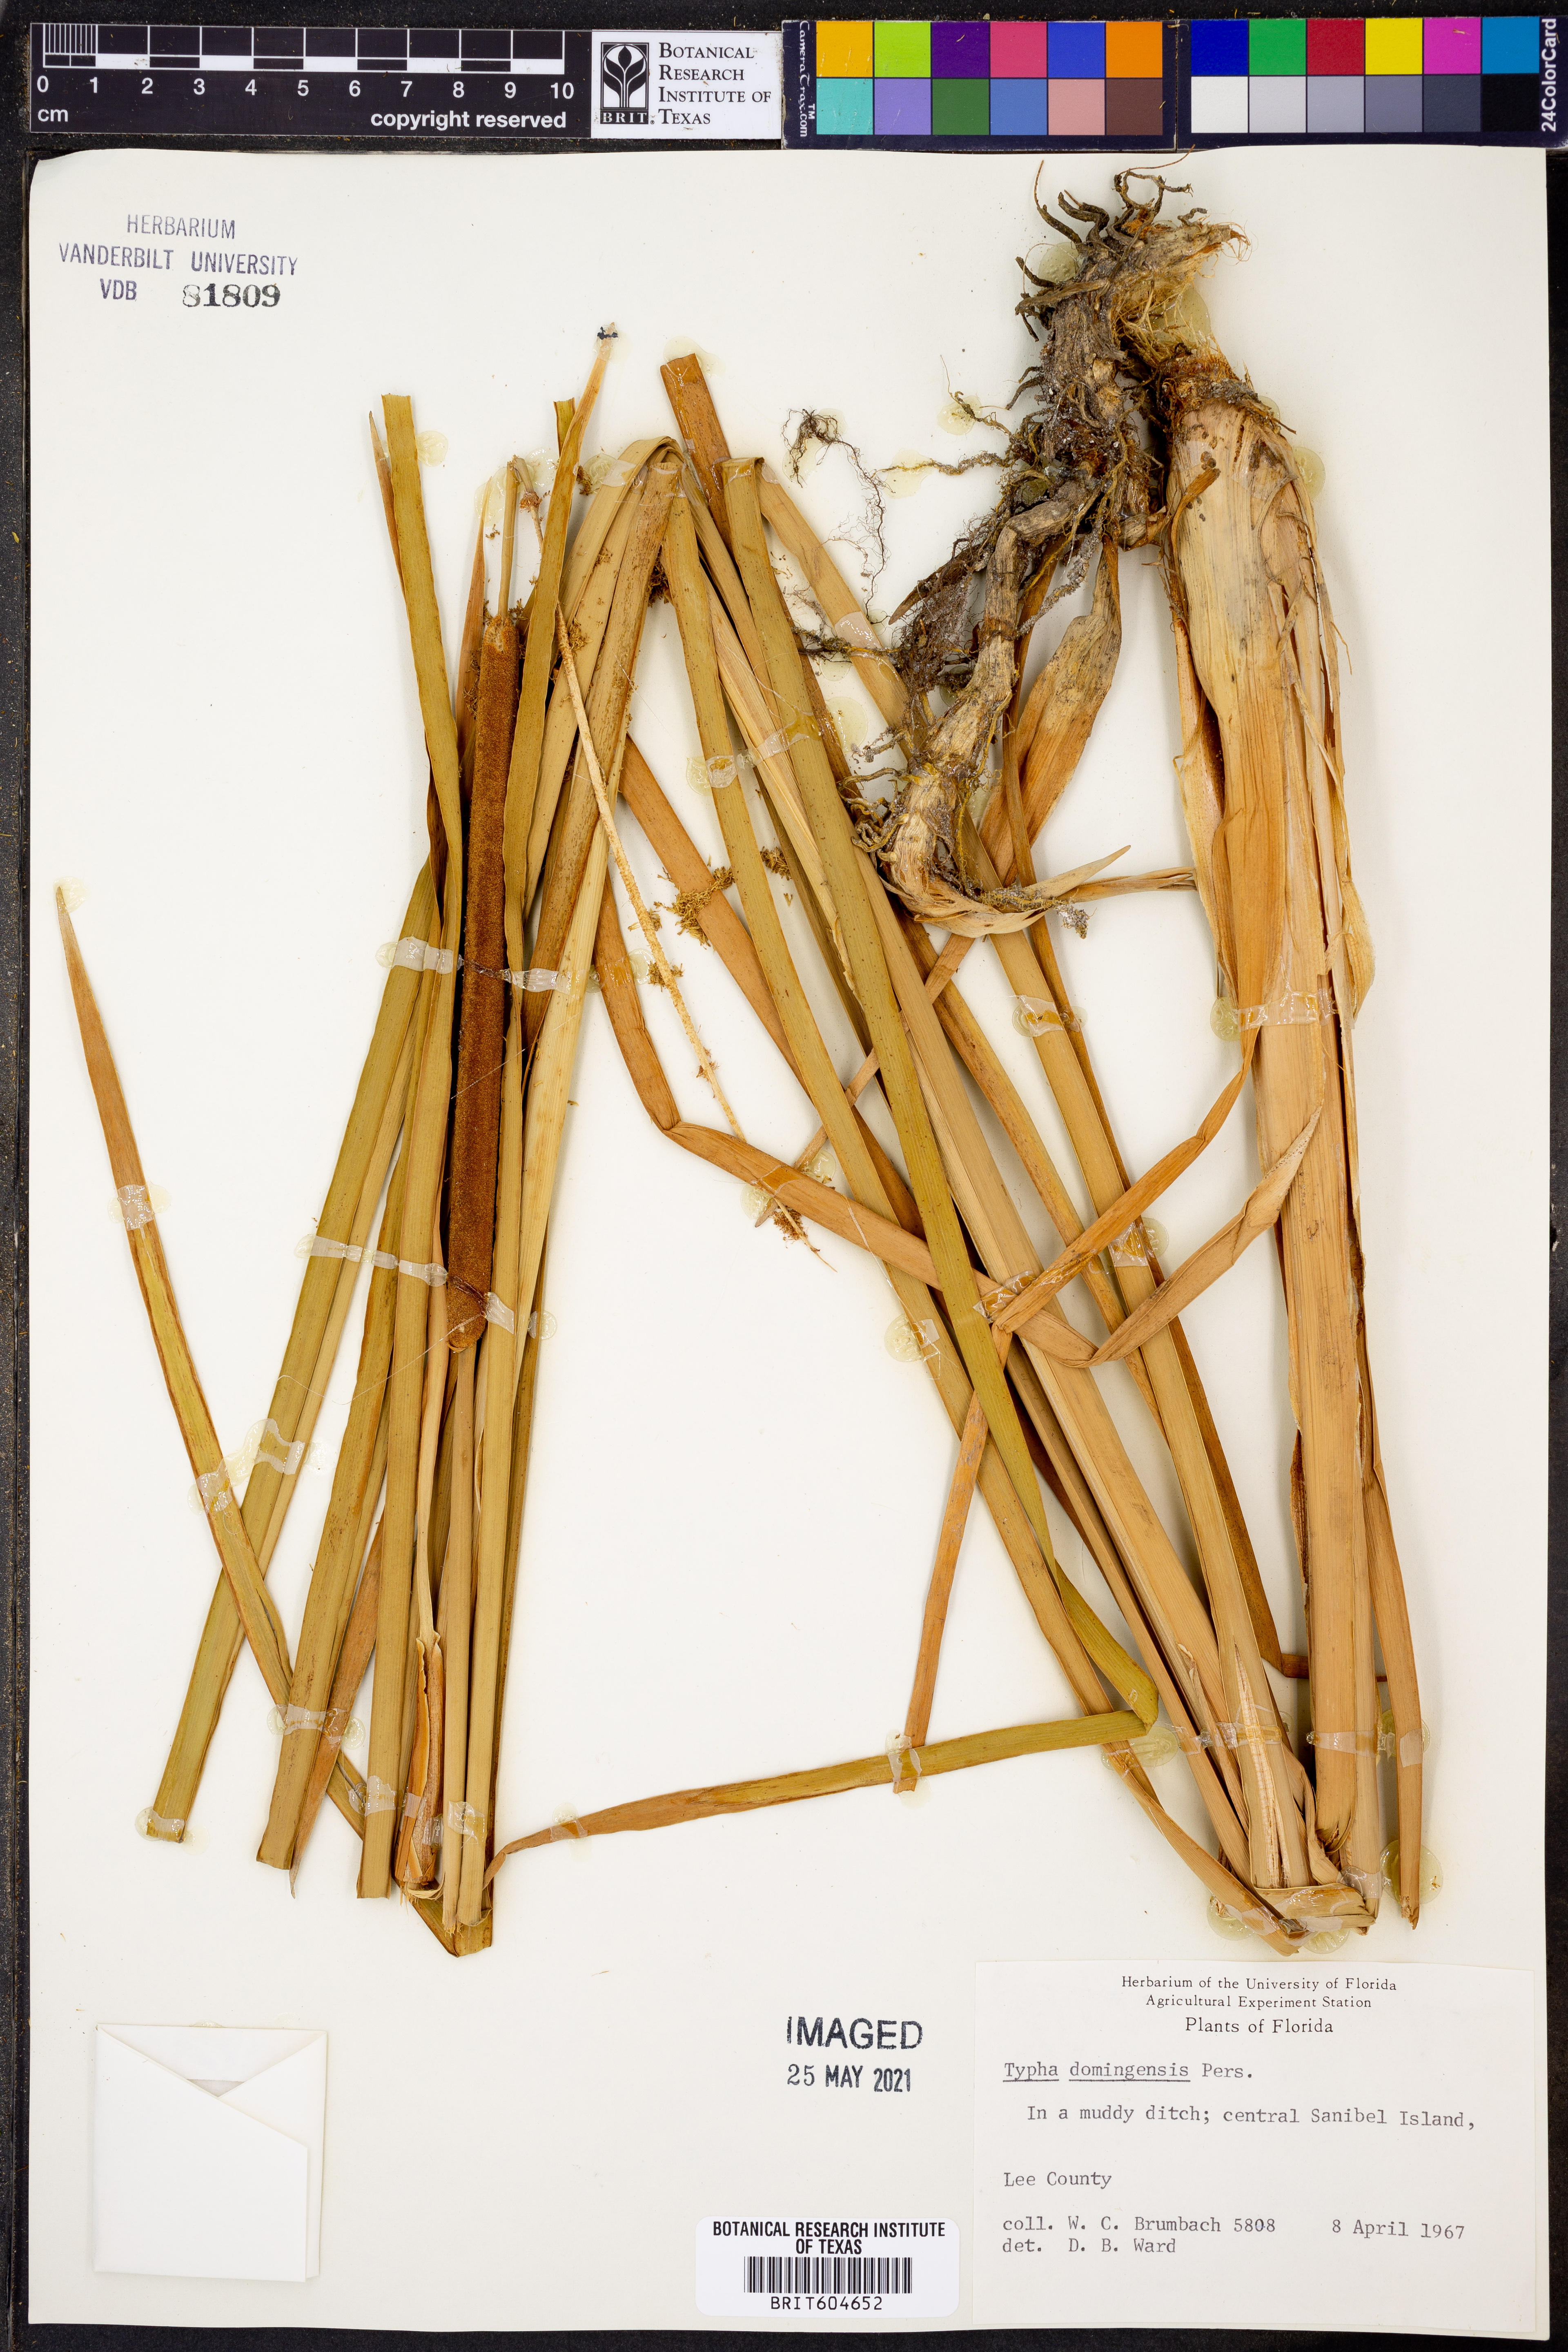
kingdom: Plantae
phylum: Tracheophyta
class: Liliopsida
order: Poales
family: Typhaceae
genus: Typha
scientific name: Typha domingensis
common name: Southern cattail
